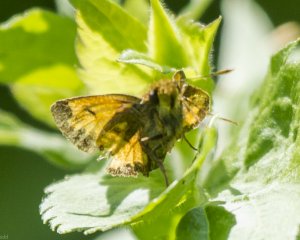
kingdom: Animalia
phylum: Arthropoda
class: Insecta
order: Lepidoptera
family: Hesperiidae
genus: Lon
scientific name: Lon hobomok
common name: Hobomok Skipper
